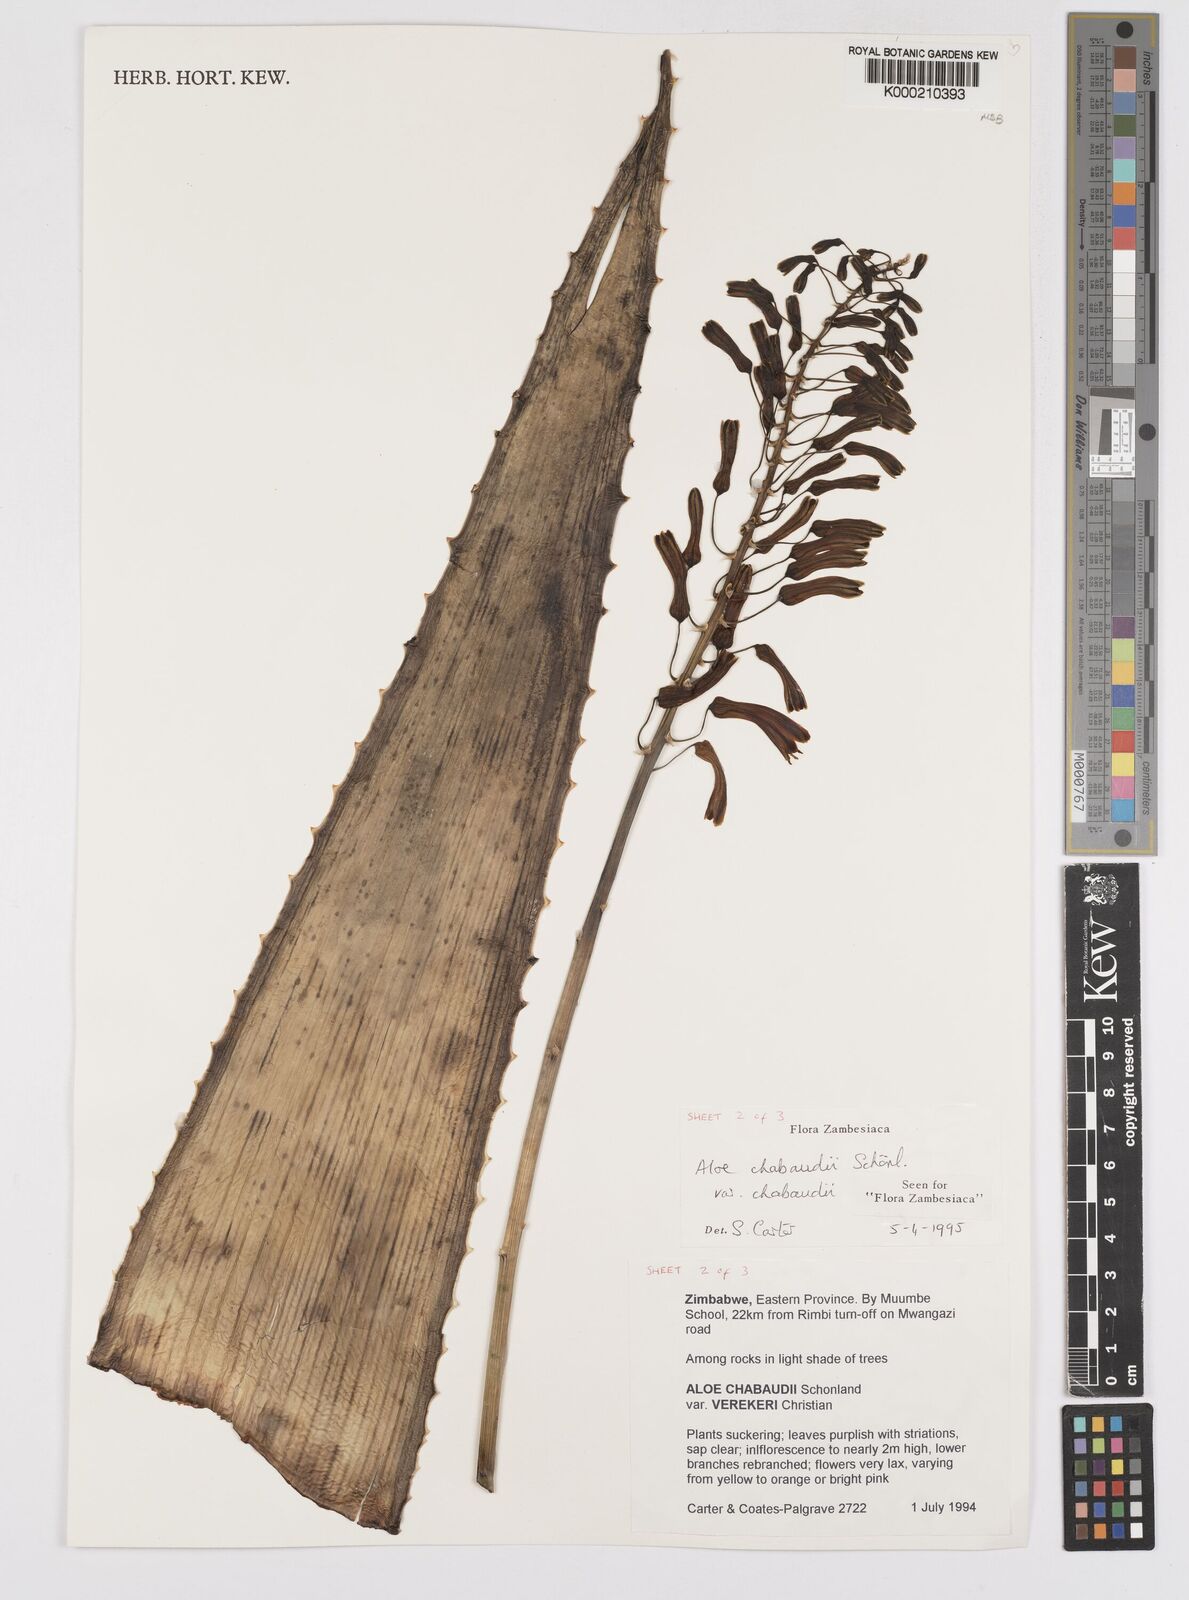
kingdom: Plantae
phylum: Tracheophyta
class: Liliopsida
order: Asparagales
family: Asphodelaceae
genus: Aloe
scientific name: Aloe chabaudii
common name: Chabaud's aloe
